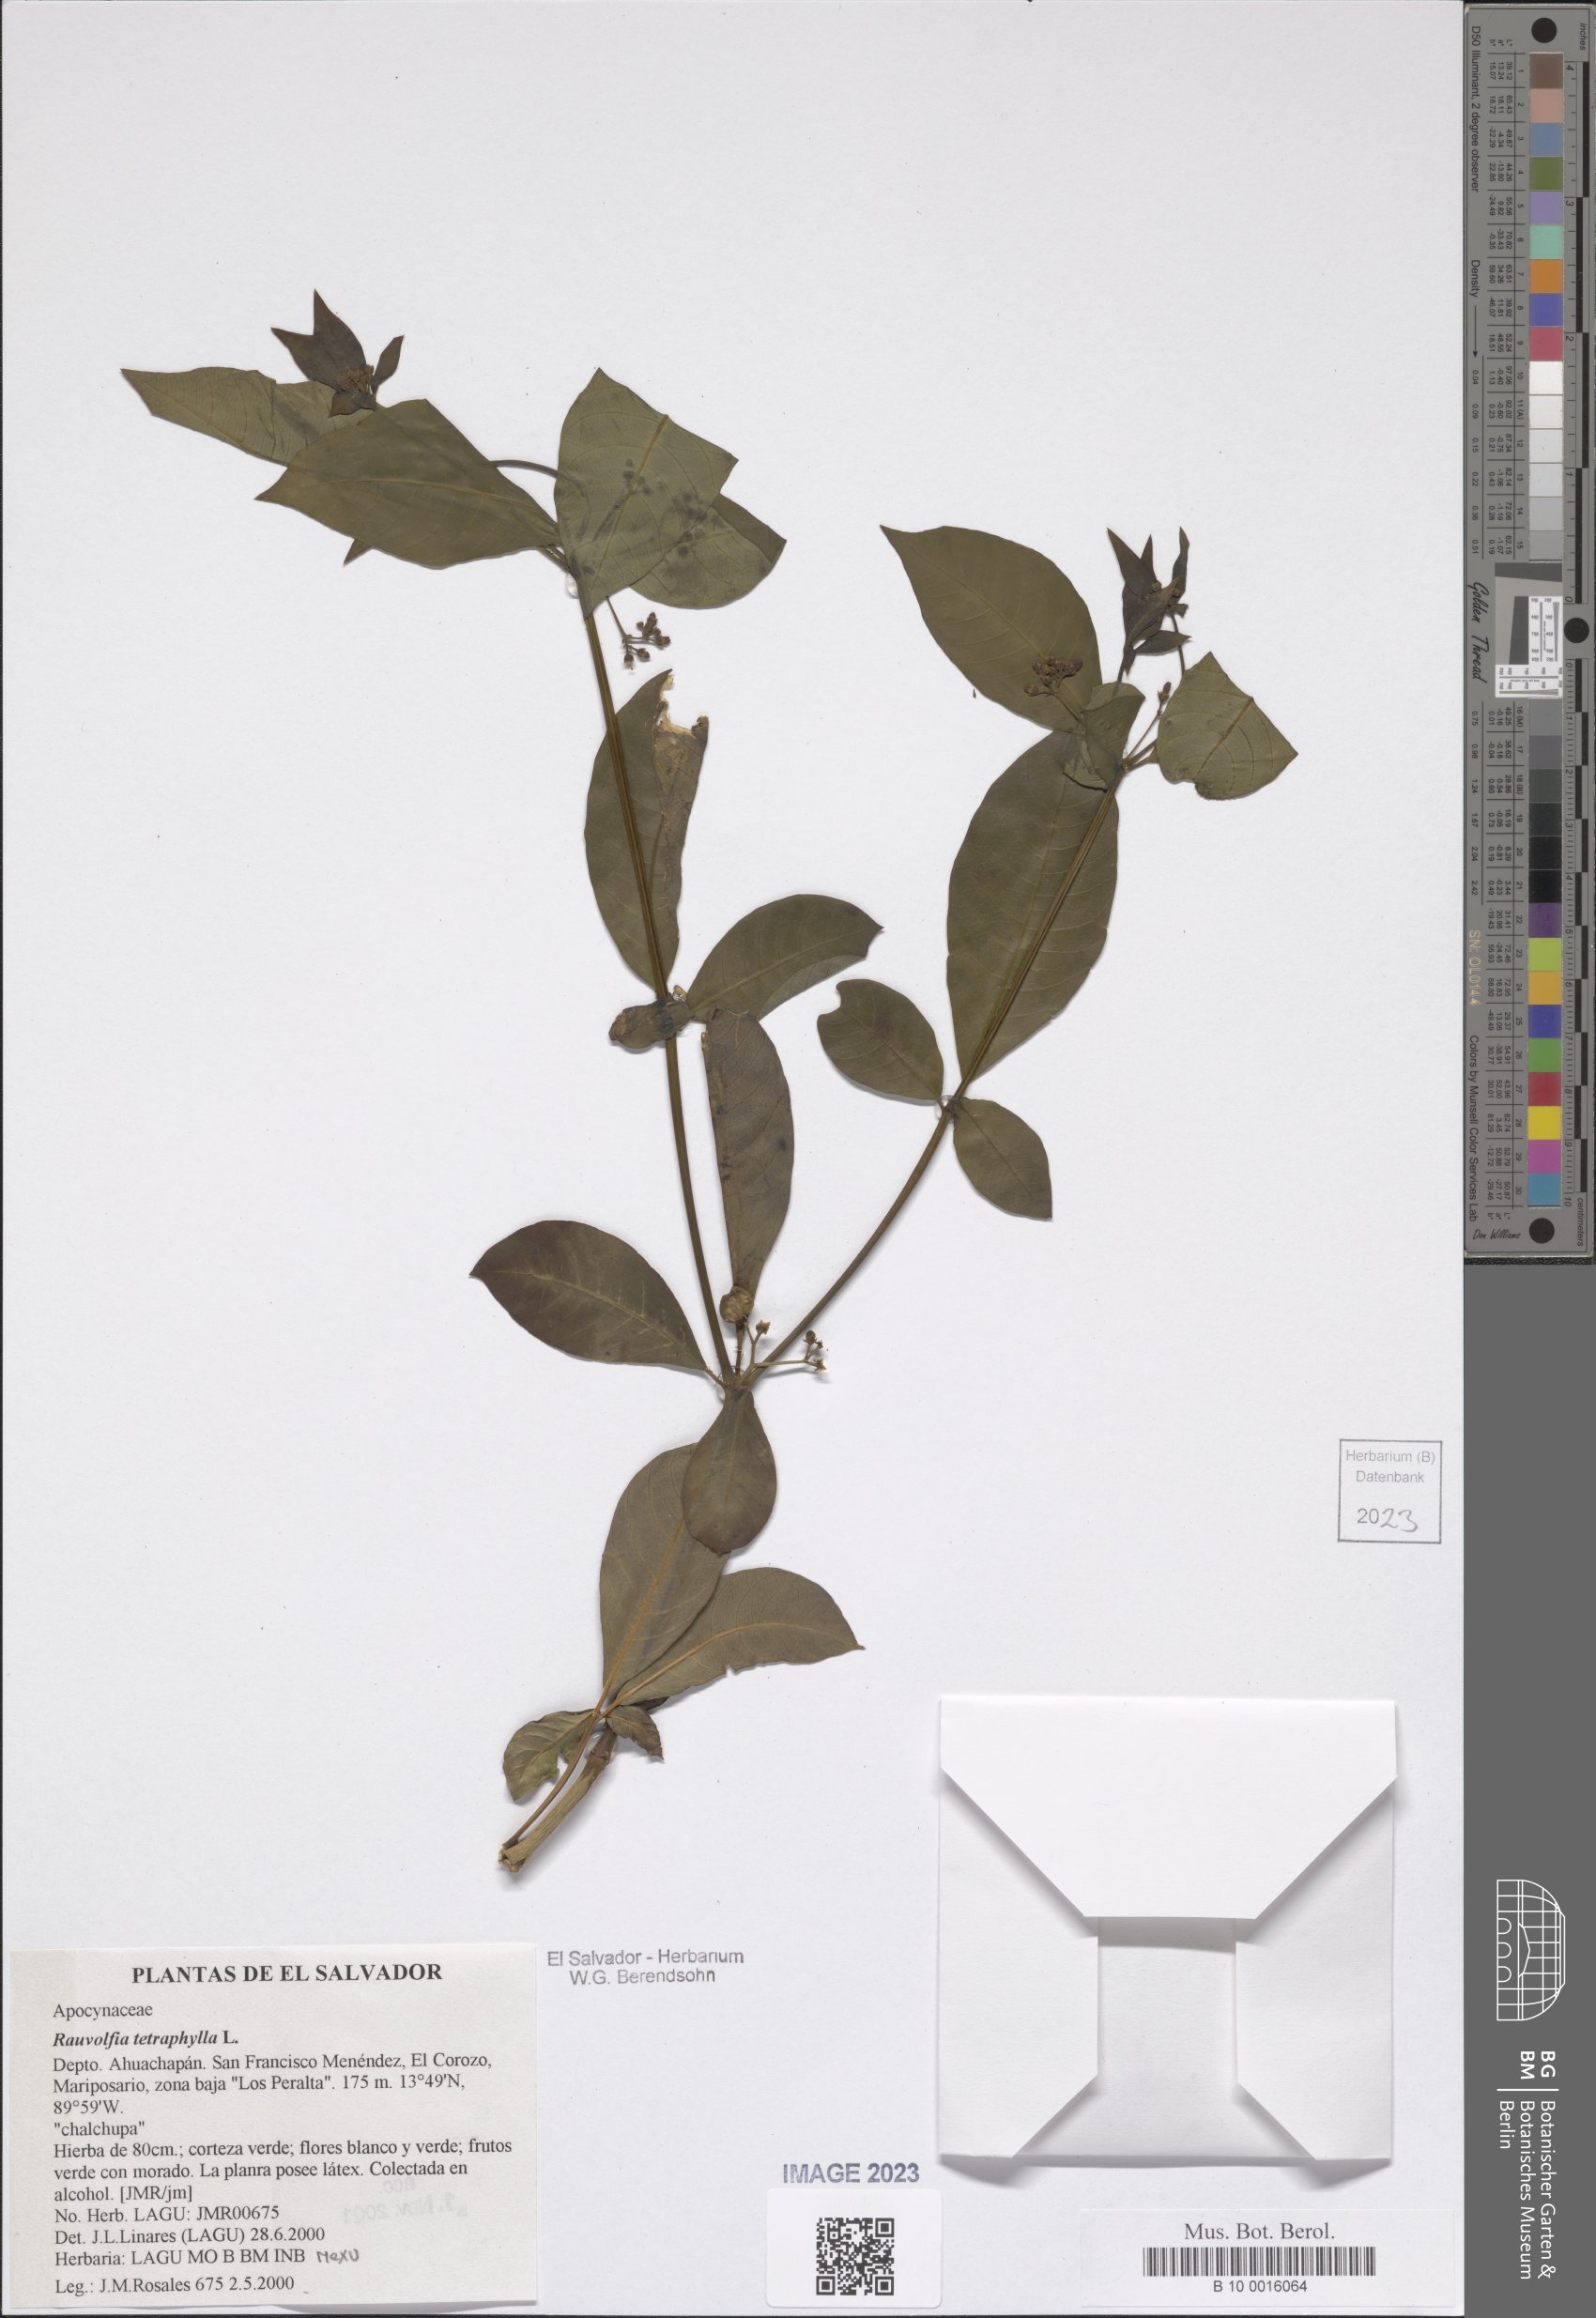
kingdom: Plantae
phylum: Tracheophyta
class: Magnoliopsida
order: Gentianales
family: Apocynaceae
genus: Rauvolfia
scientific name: Rauvolfia tetraphylla
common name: Four-leaf devil-pepper
